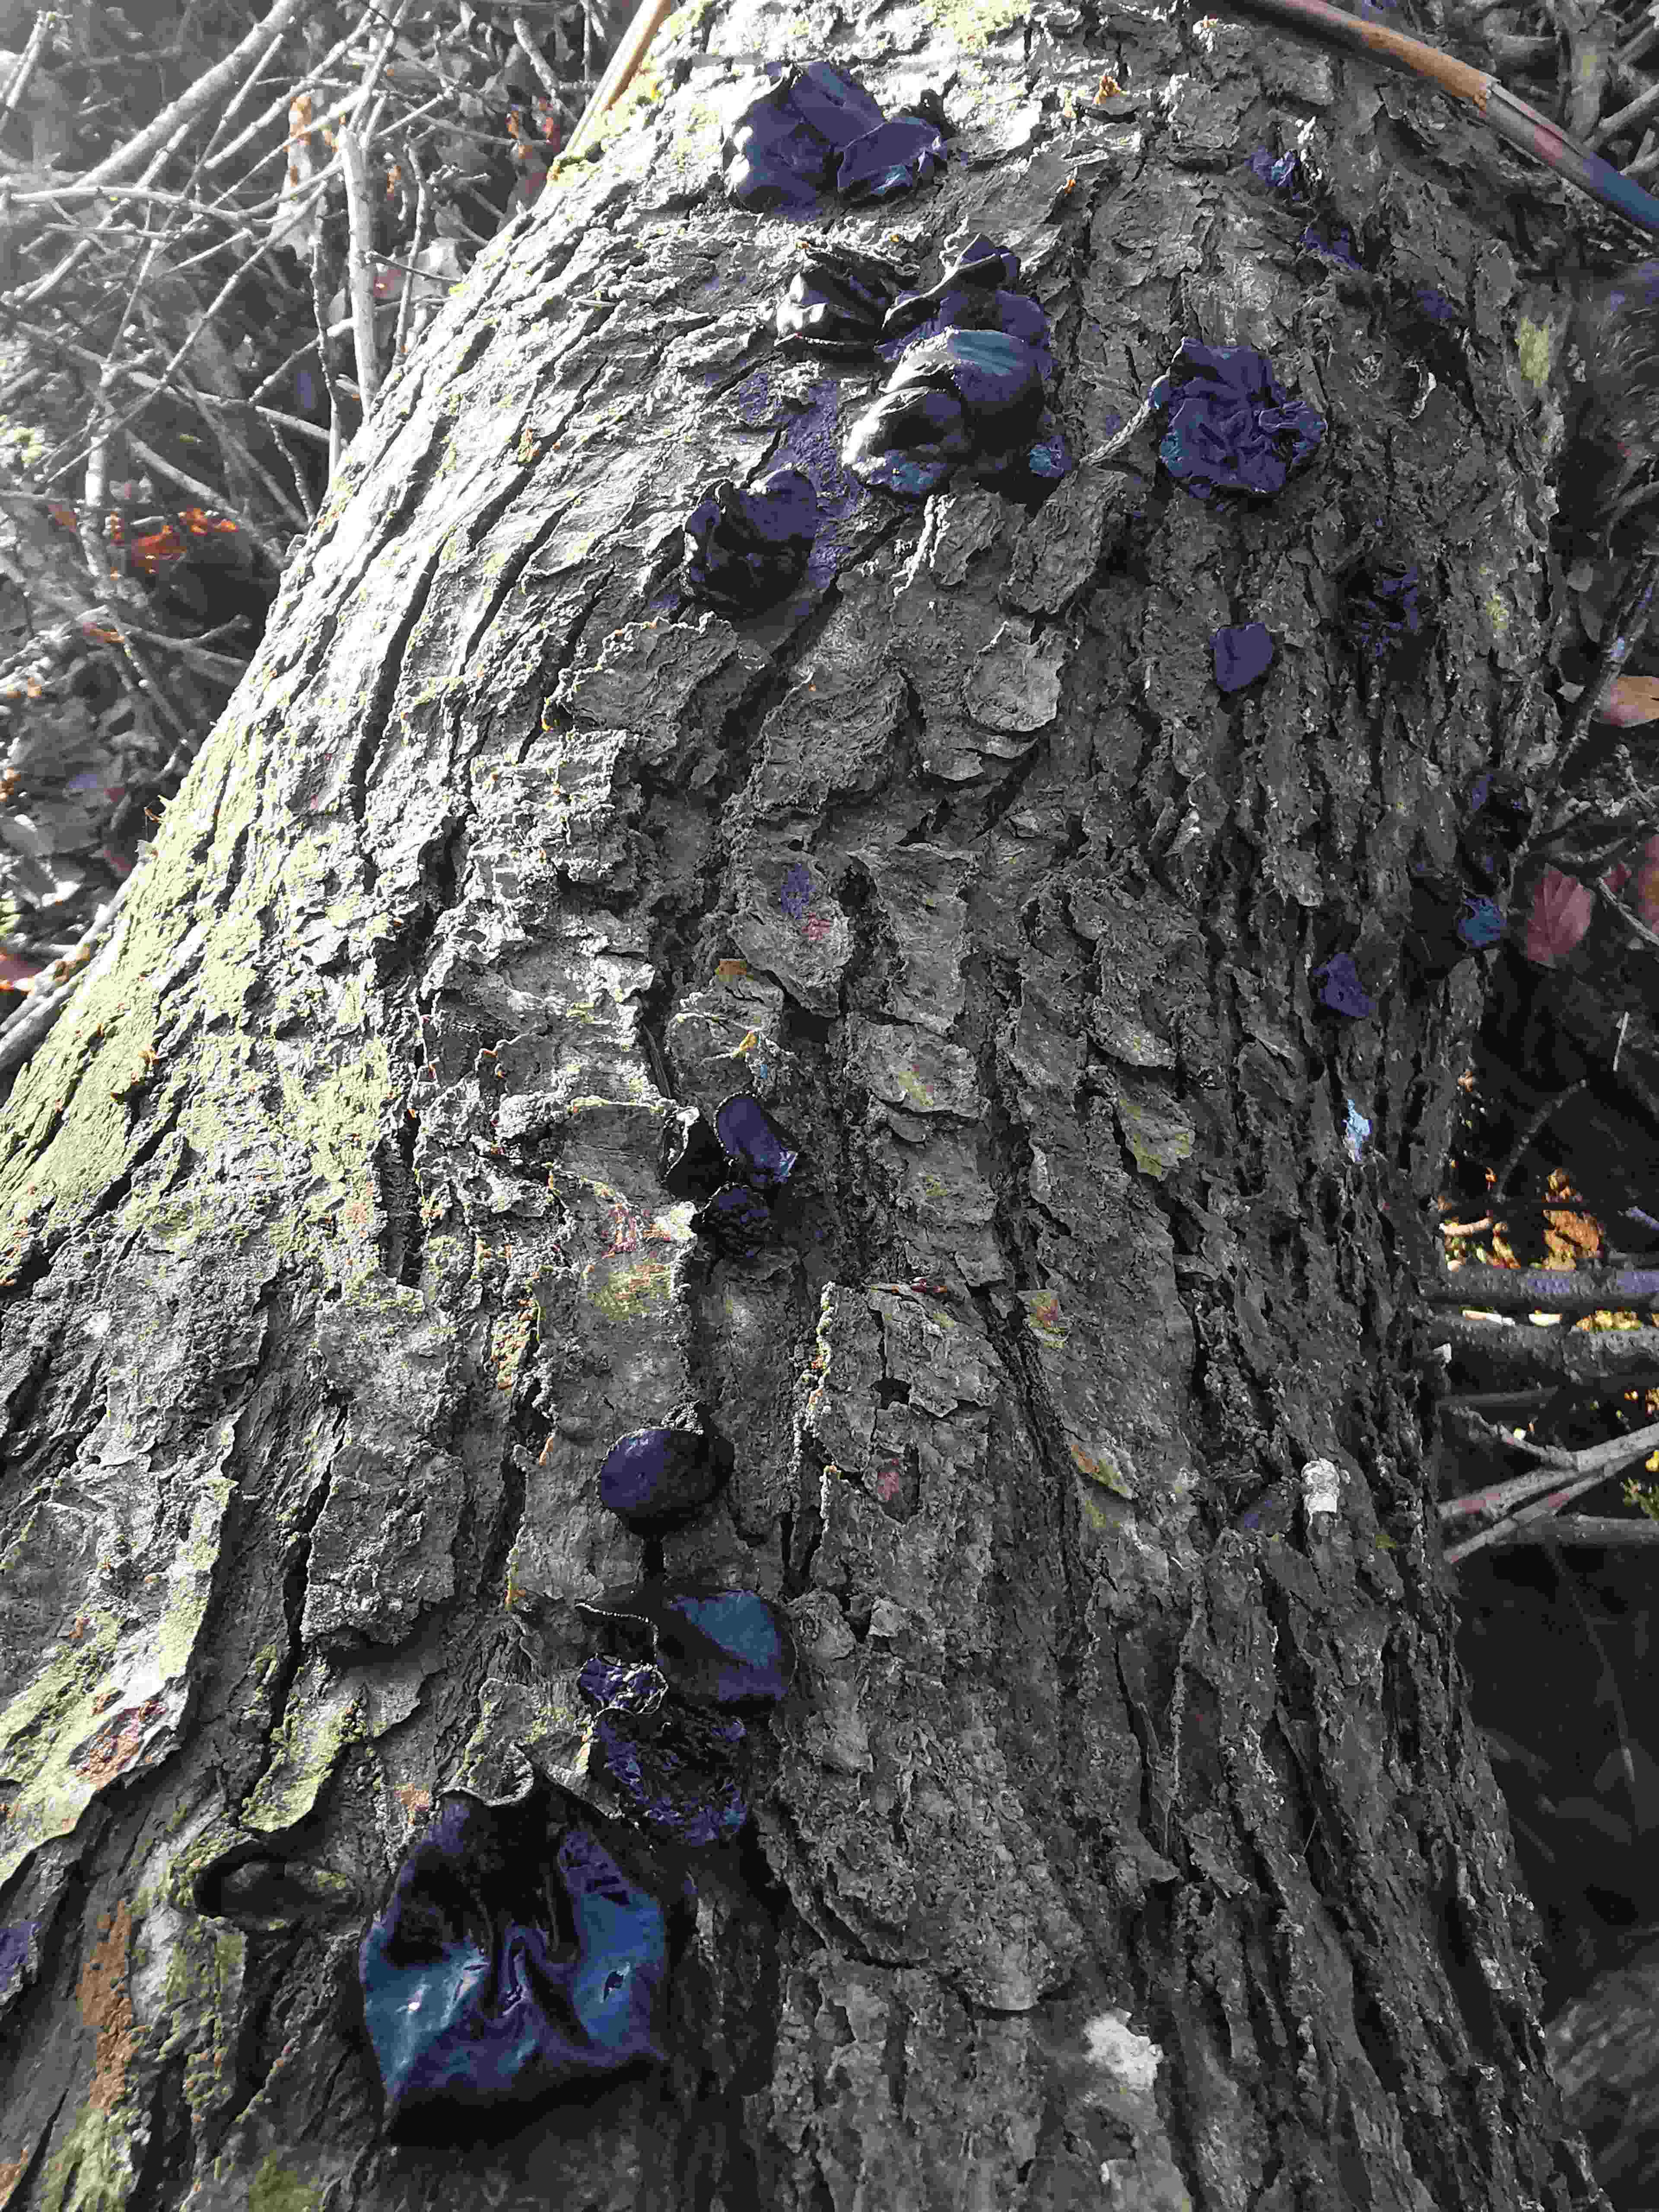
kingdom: Fungi
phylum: Basidiomycota
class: Agaricomycetes
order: Auriculariales
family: Auriculariaceae
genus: Exidia
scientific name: Exidia glandulosa
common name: ege-bævretop
